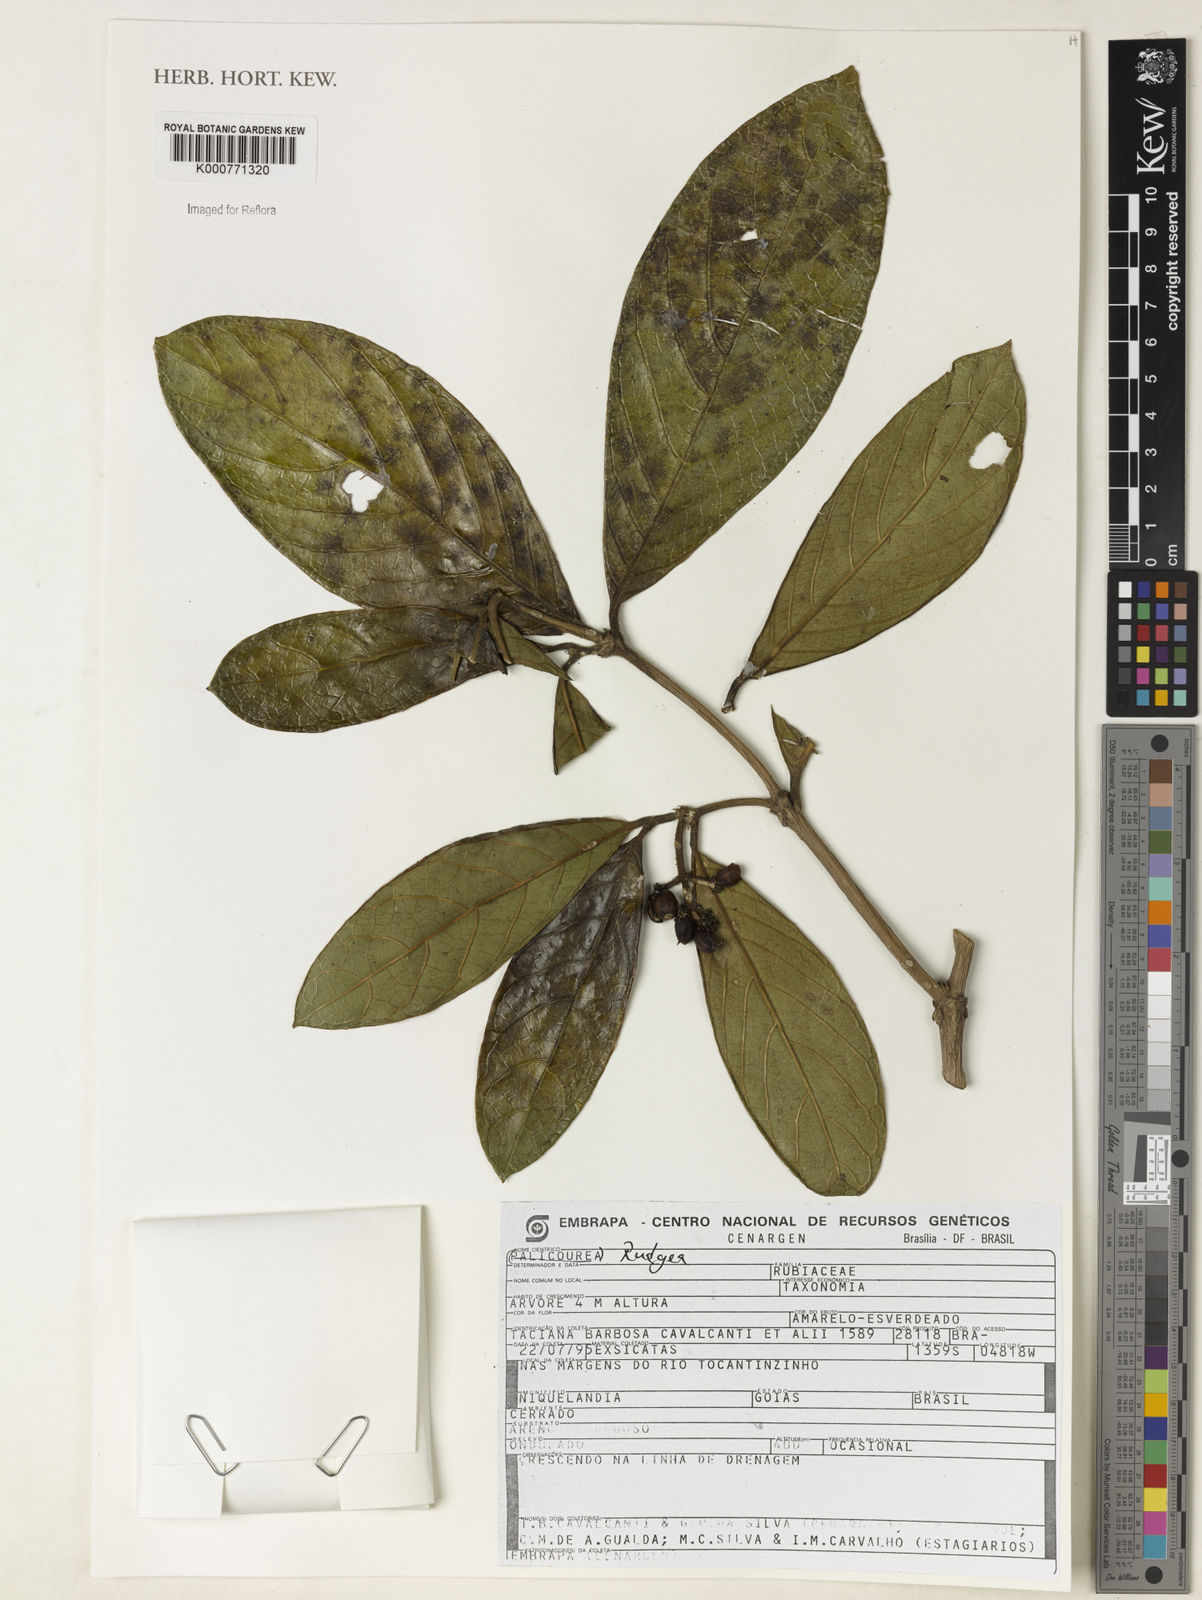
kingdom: Plantae
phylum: Tracheophyta
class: Magnoliopsida
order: Gentianales
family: Rubiaceae
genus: Rudgea
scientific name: Rudgea
